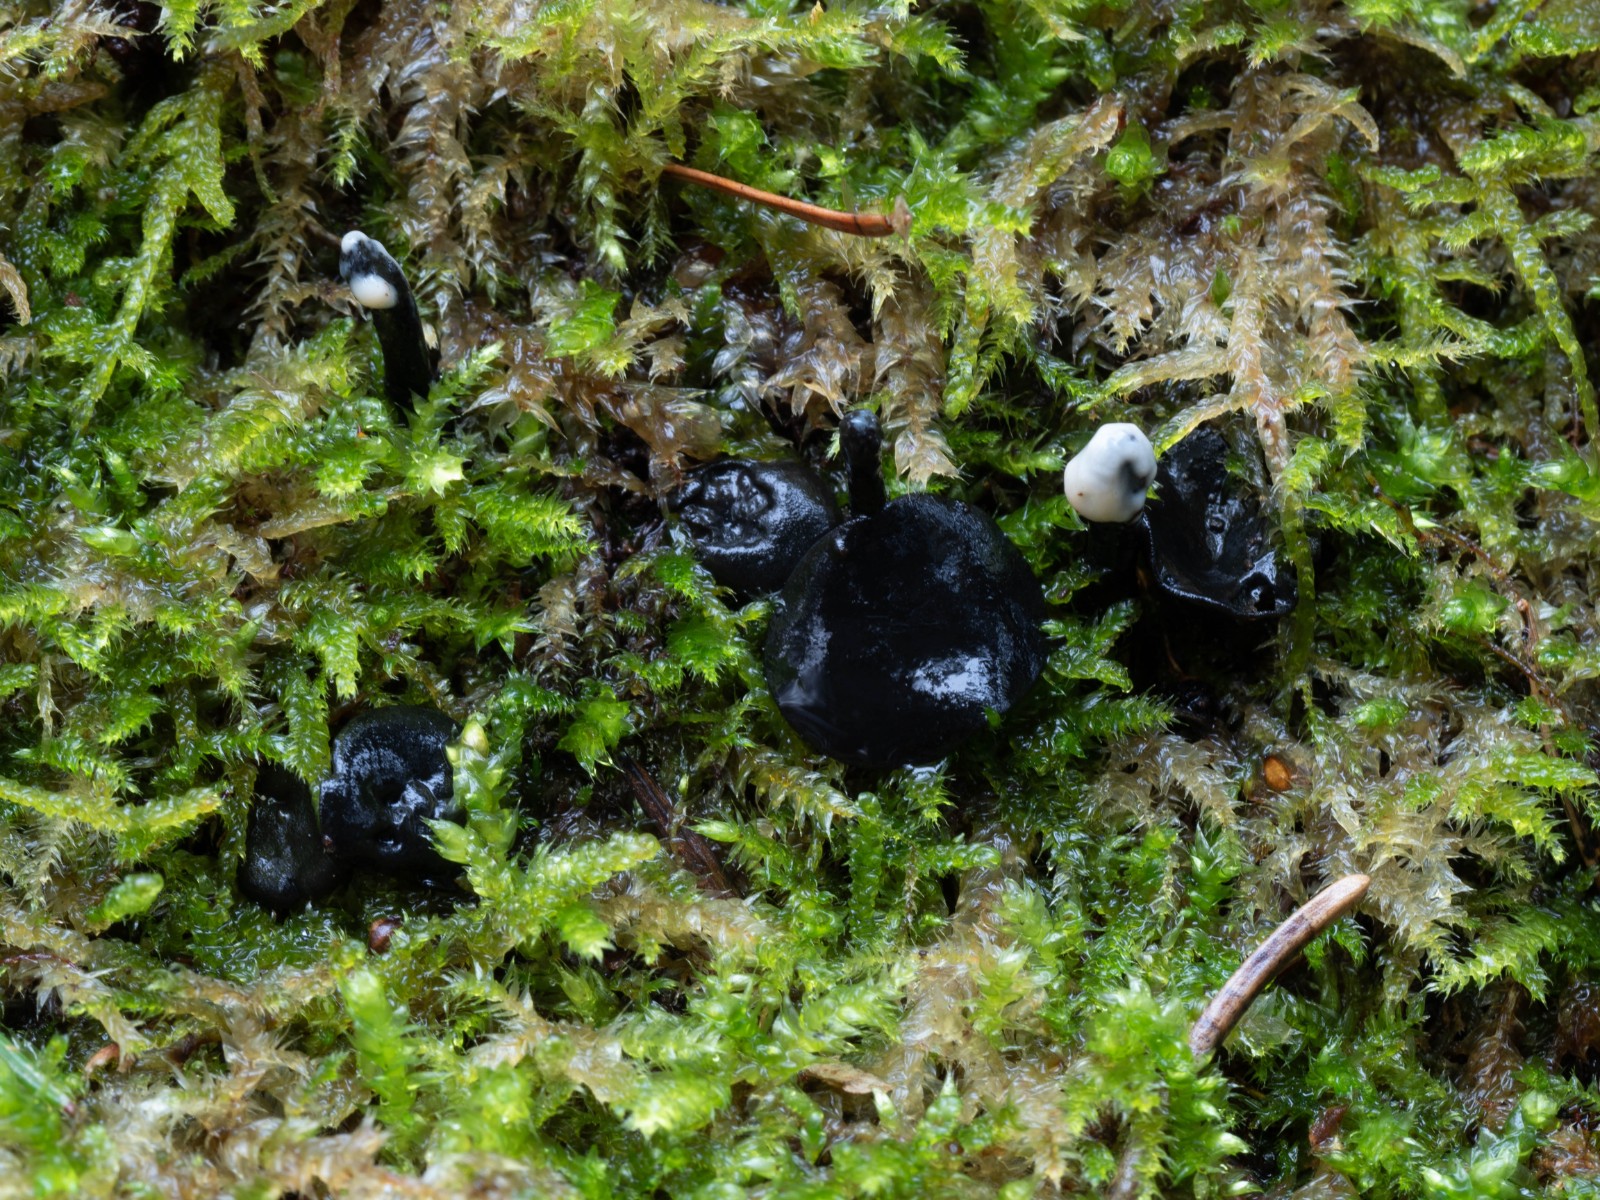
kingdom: Fungi
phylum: Ascomycota
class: Leotiomycetes
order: Helotiales
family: Bulgariaceae
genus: Holwaya
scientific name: Holwaya mucida
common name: lindeskive
